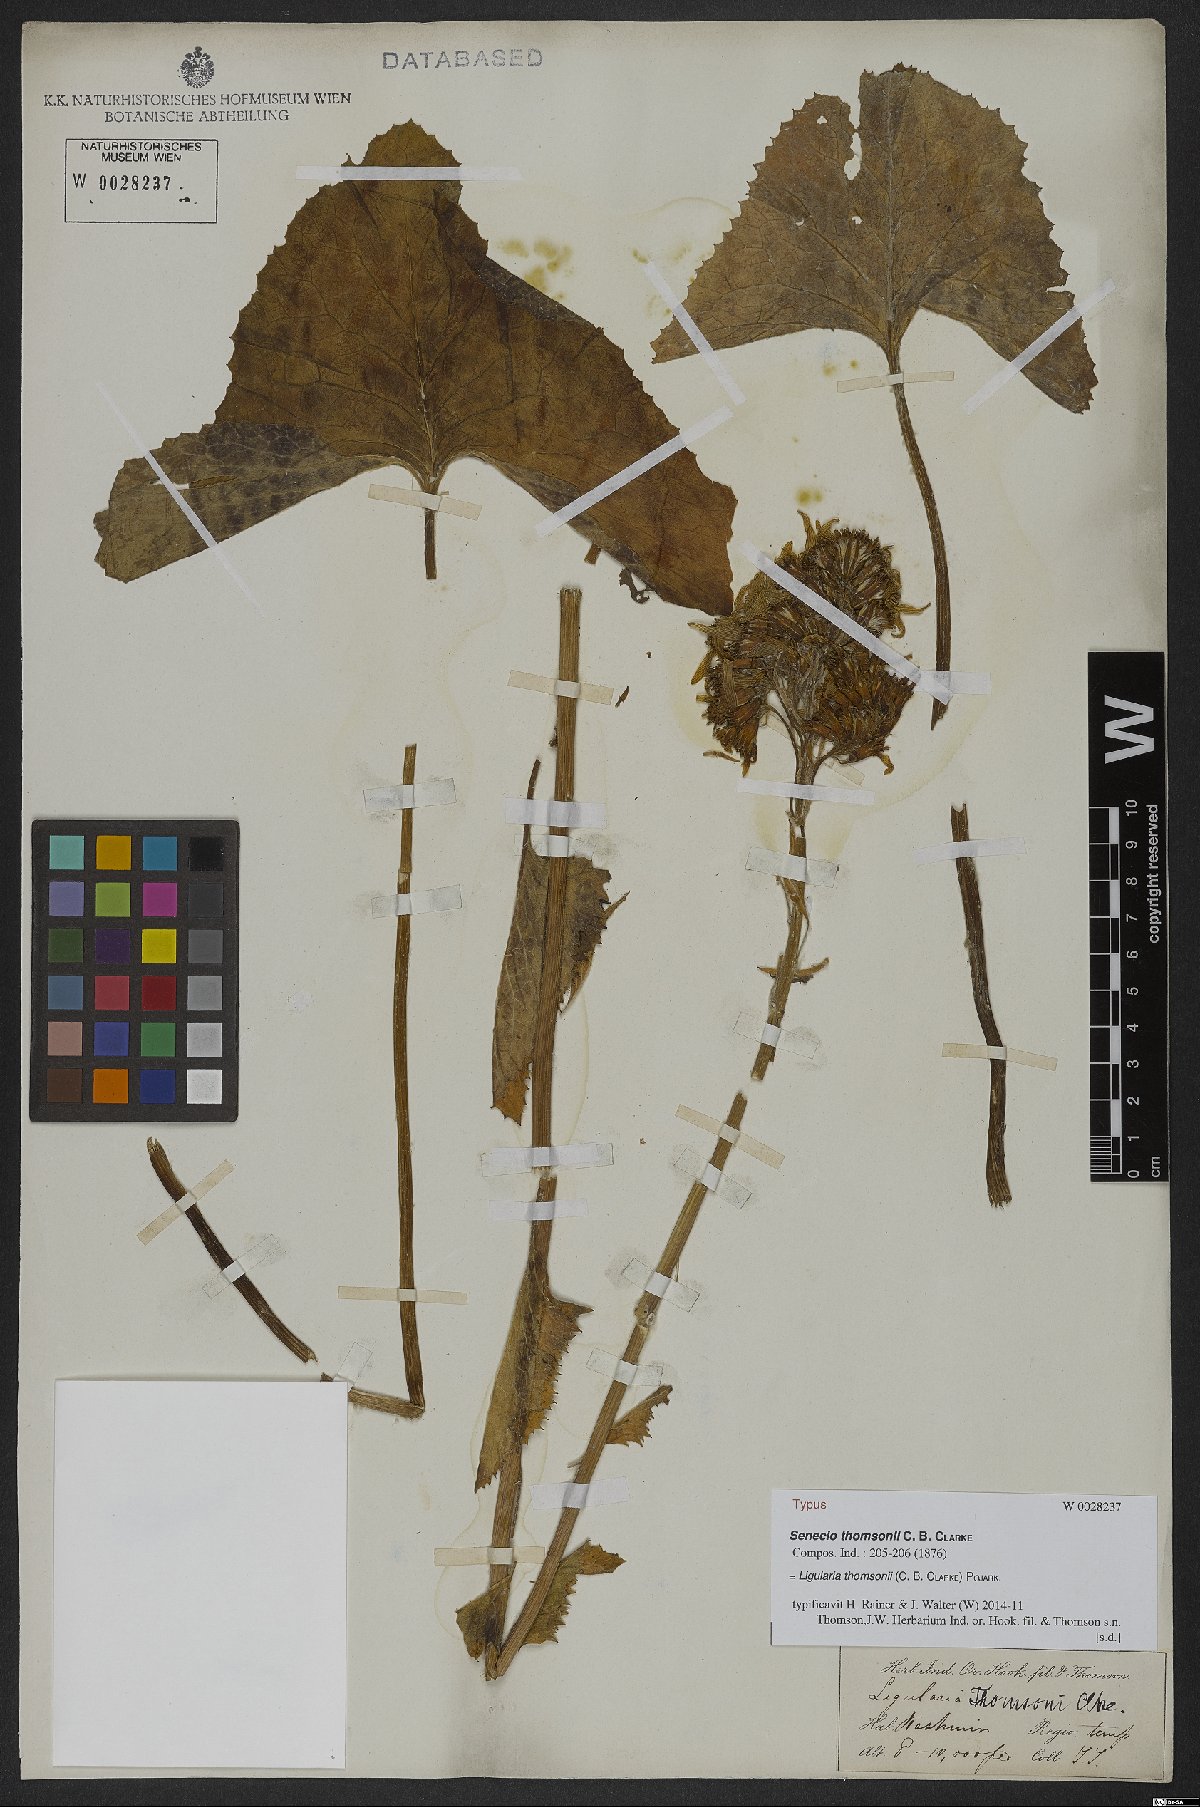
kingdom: Plantae
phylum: Tracheophyta
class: Magnoliopsida
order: Asterales
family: Asteraceae
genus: Vickifunkia
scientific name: Vickifunkia thomsonii
